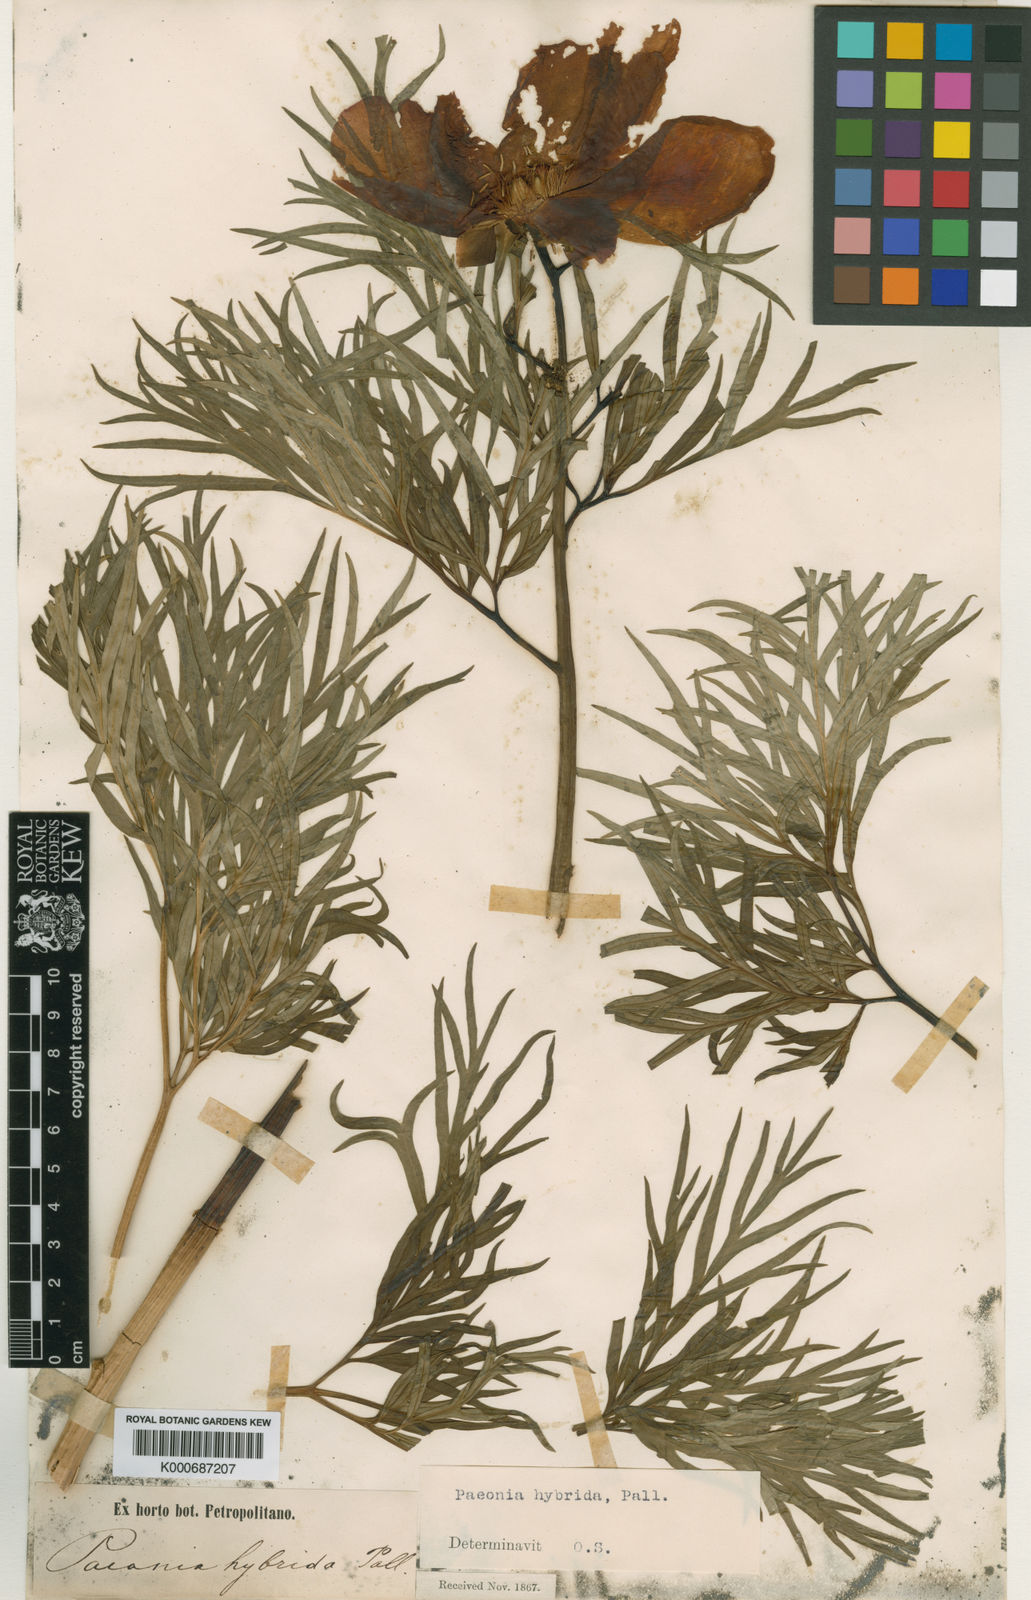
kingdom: Plantae
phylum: Tracheophyta
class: Magnoliopsida
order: Saxifragales
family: Paeoniaceae
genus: Paeonia
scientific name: Paeonia intermedia
